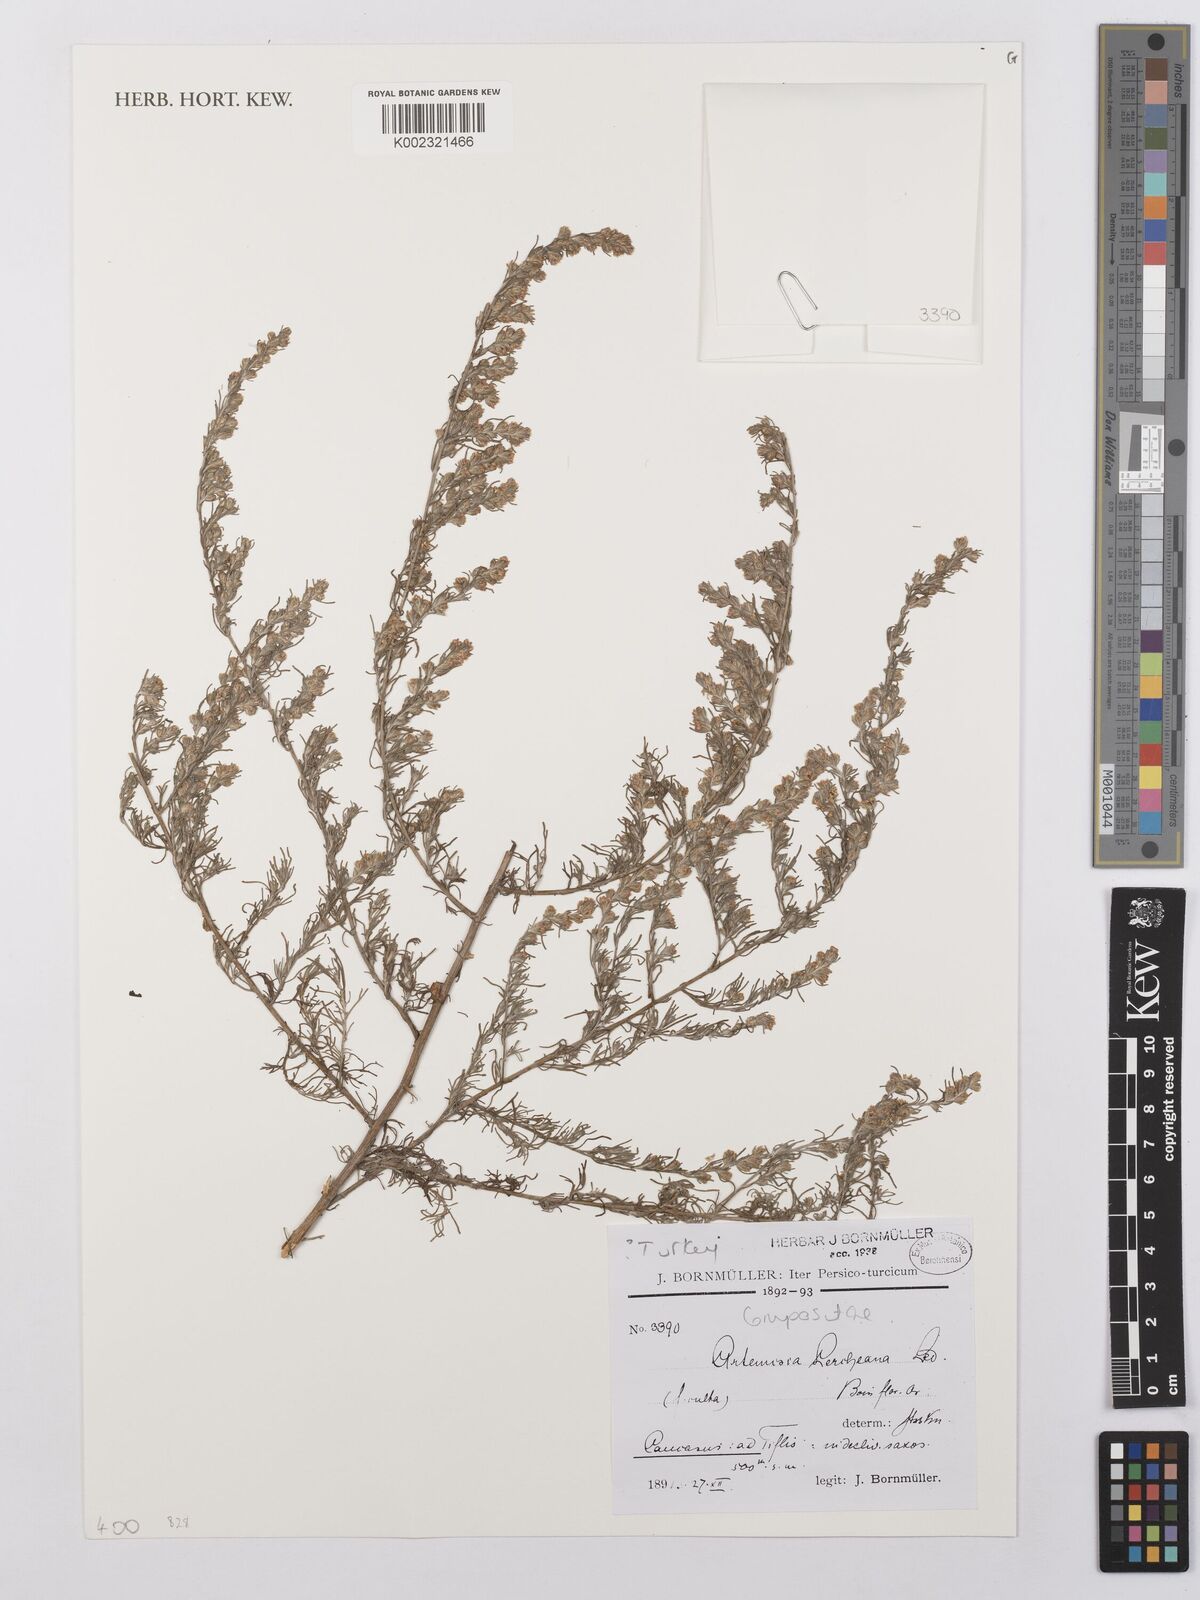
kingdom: Plantae
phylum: Tracheophyta
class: Magnoliopsida
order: Asterales
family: Asteraceae
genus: Artemisia
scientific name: Artemisia fragrans
